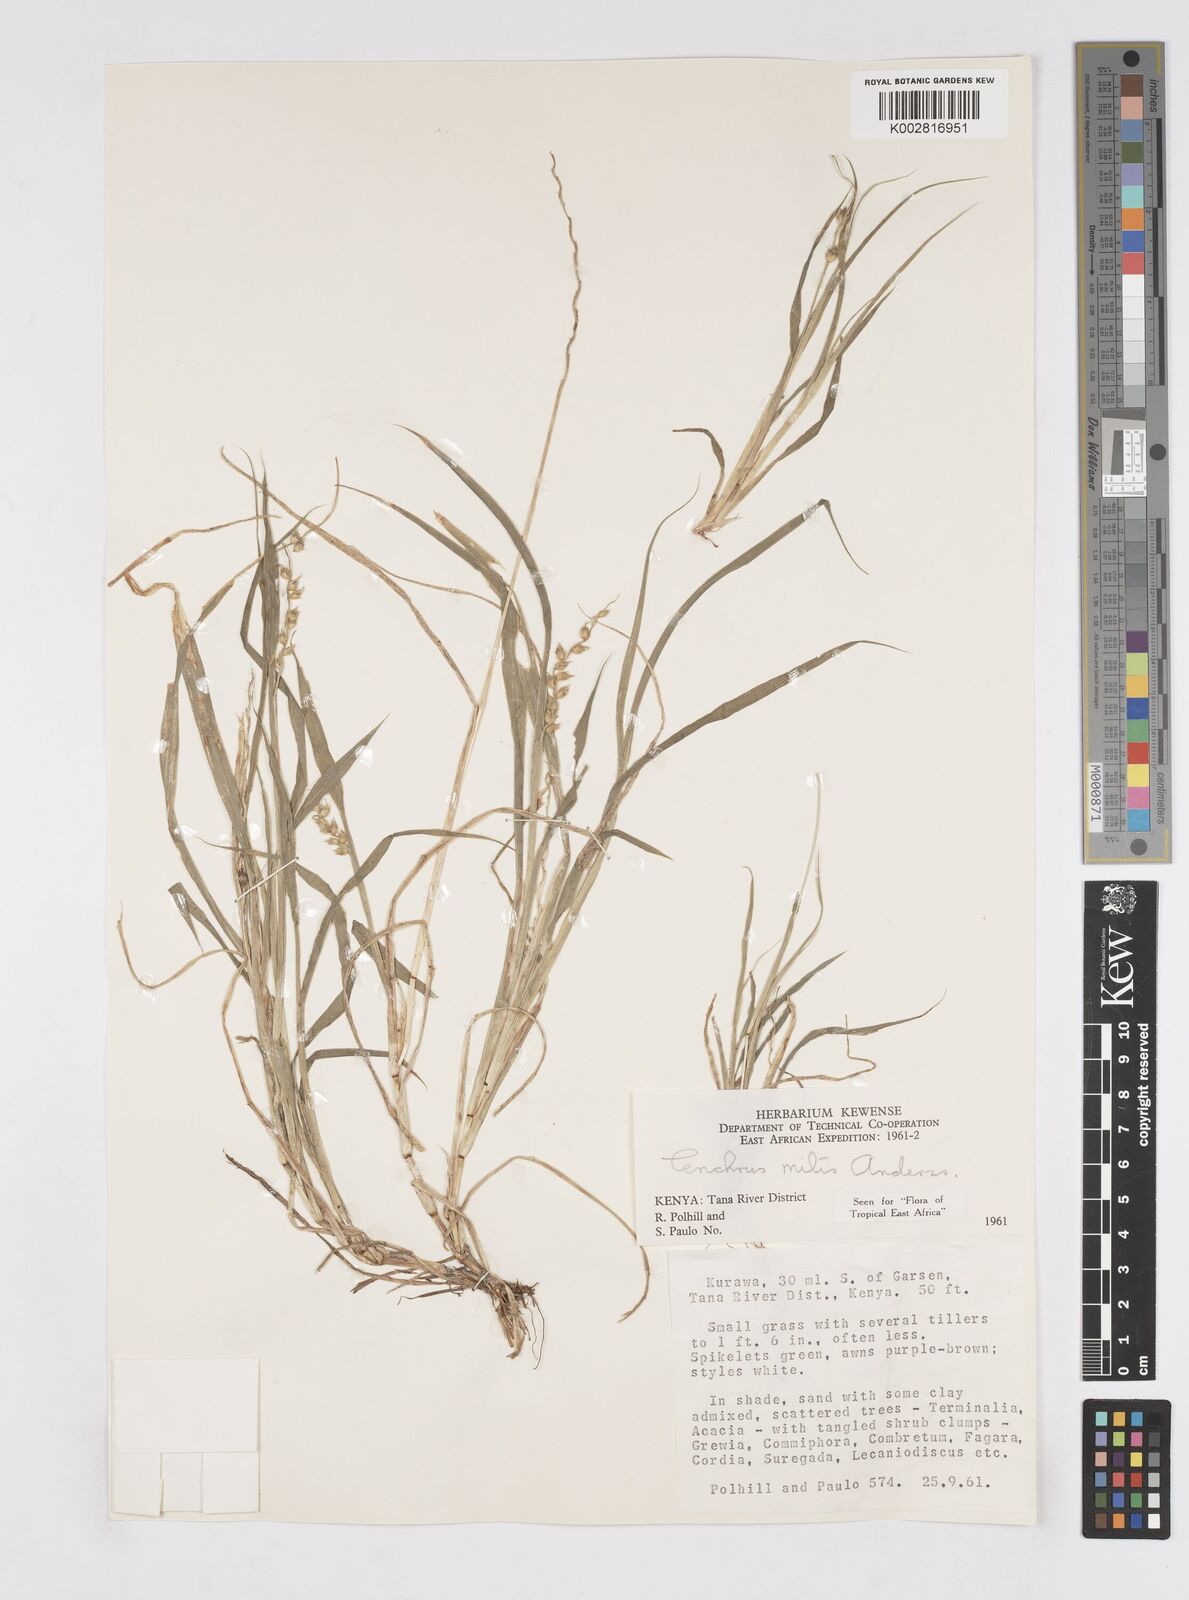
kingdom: Plantae
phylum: Tracheophyta
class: Liliopsida
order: Poales
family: Poaceae
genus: Cenchrus
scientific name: Cenchrus mitis
